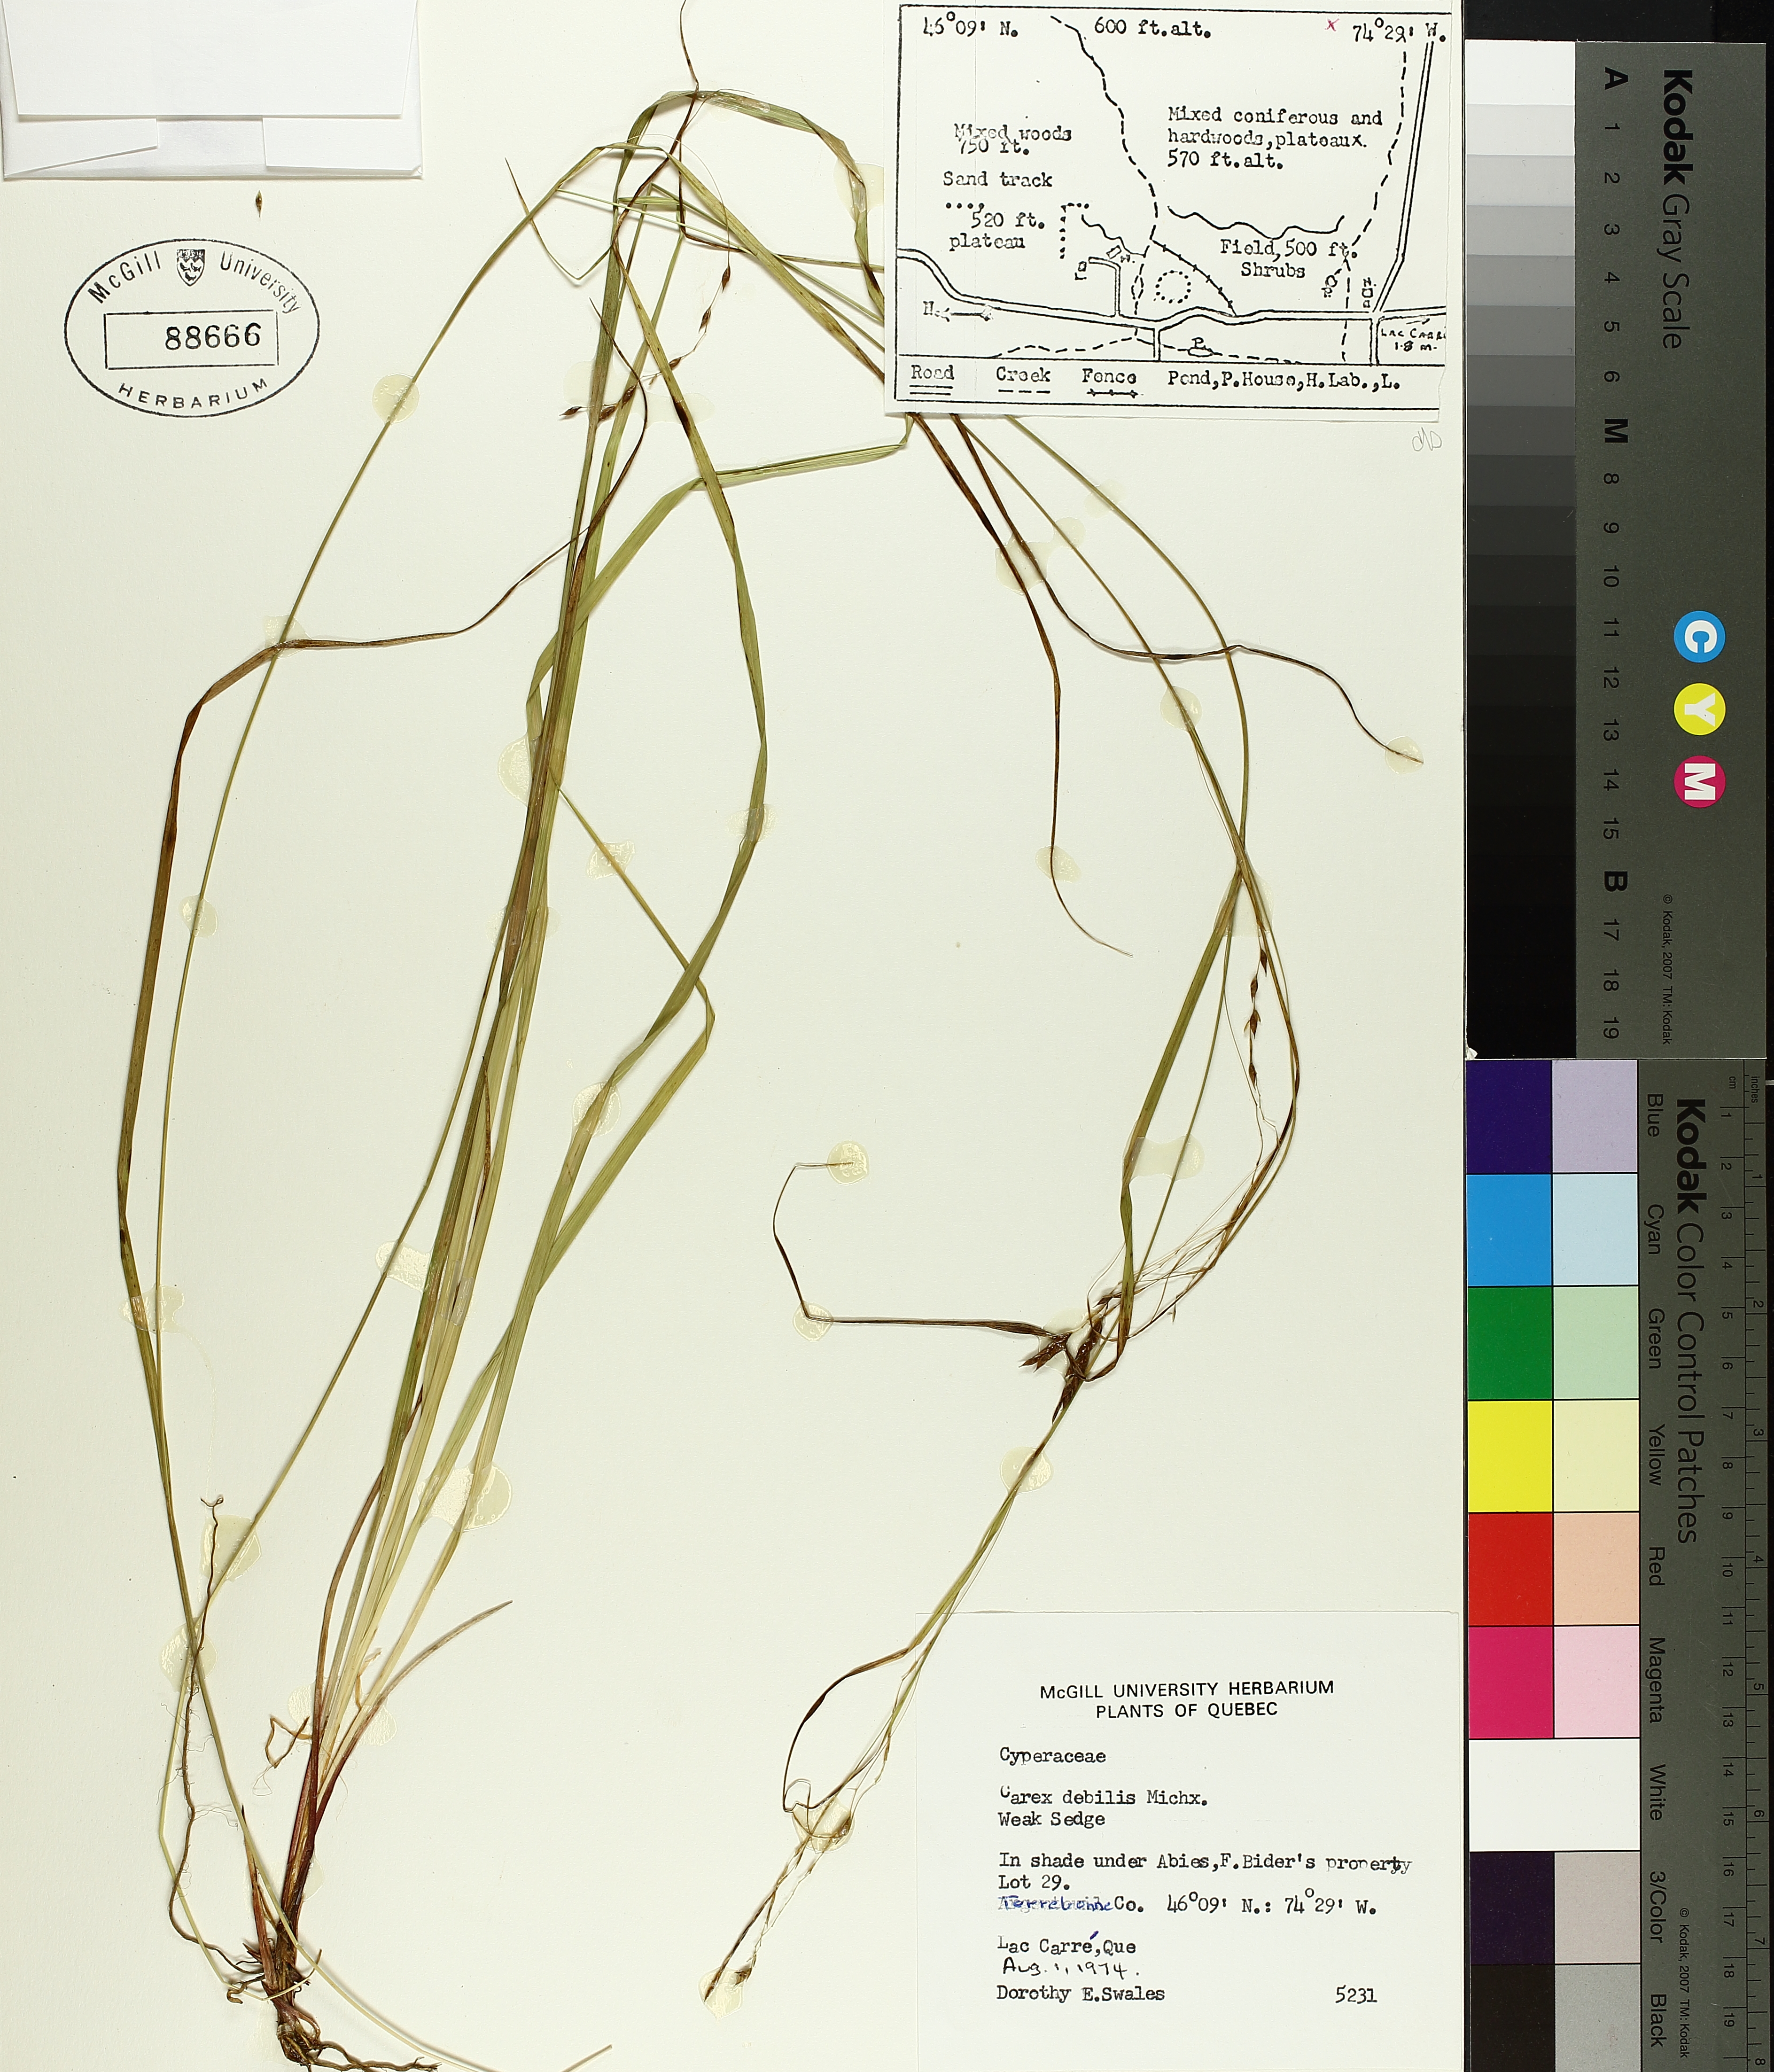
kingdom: Plantae
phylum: Tracheophyta
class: Liliopsida
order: Poales
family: Cyperaceae
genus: Carex
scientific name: Carex debilis
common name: White-edge sedge
